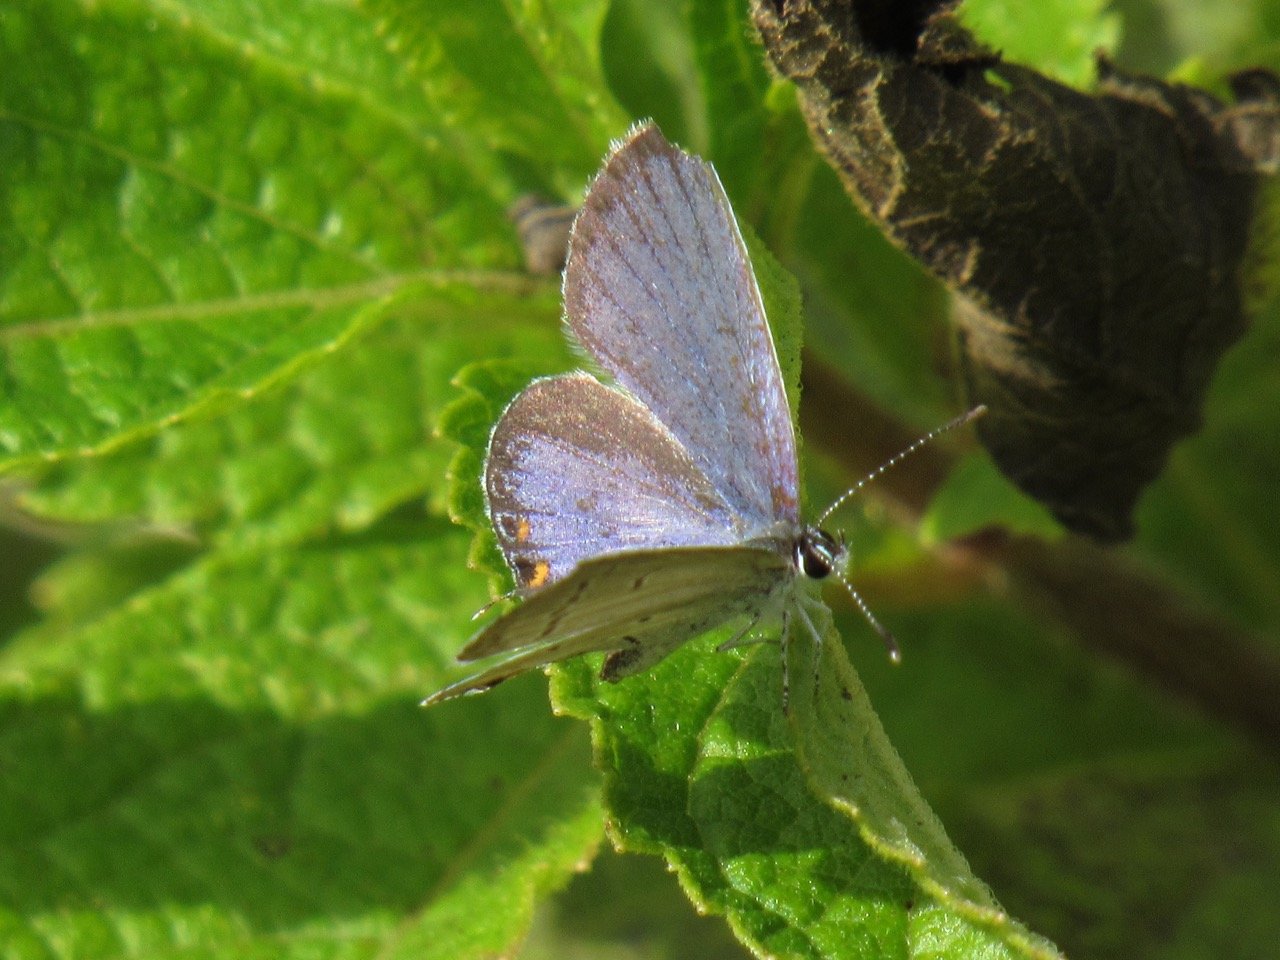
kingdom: Animalia
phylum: Arthropoda
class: Insecta
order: Lepidoptera
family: Lycaenidae
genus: Elkalyce
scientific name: Elkalyce comyntas
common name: Eastern Tailed-Blue
